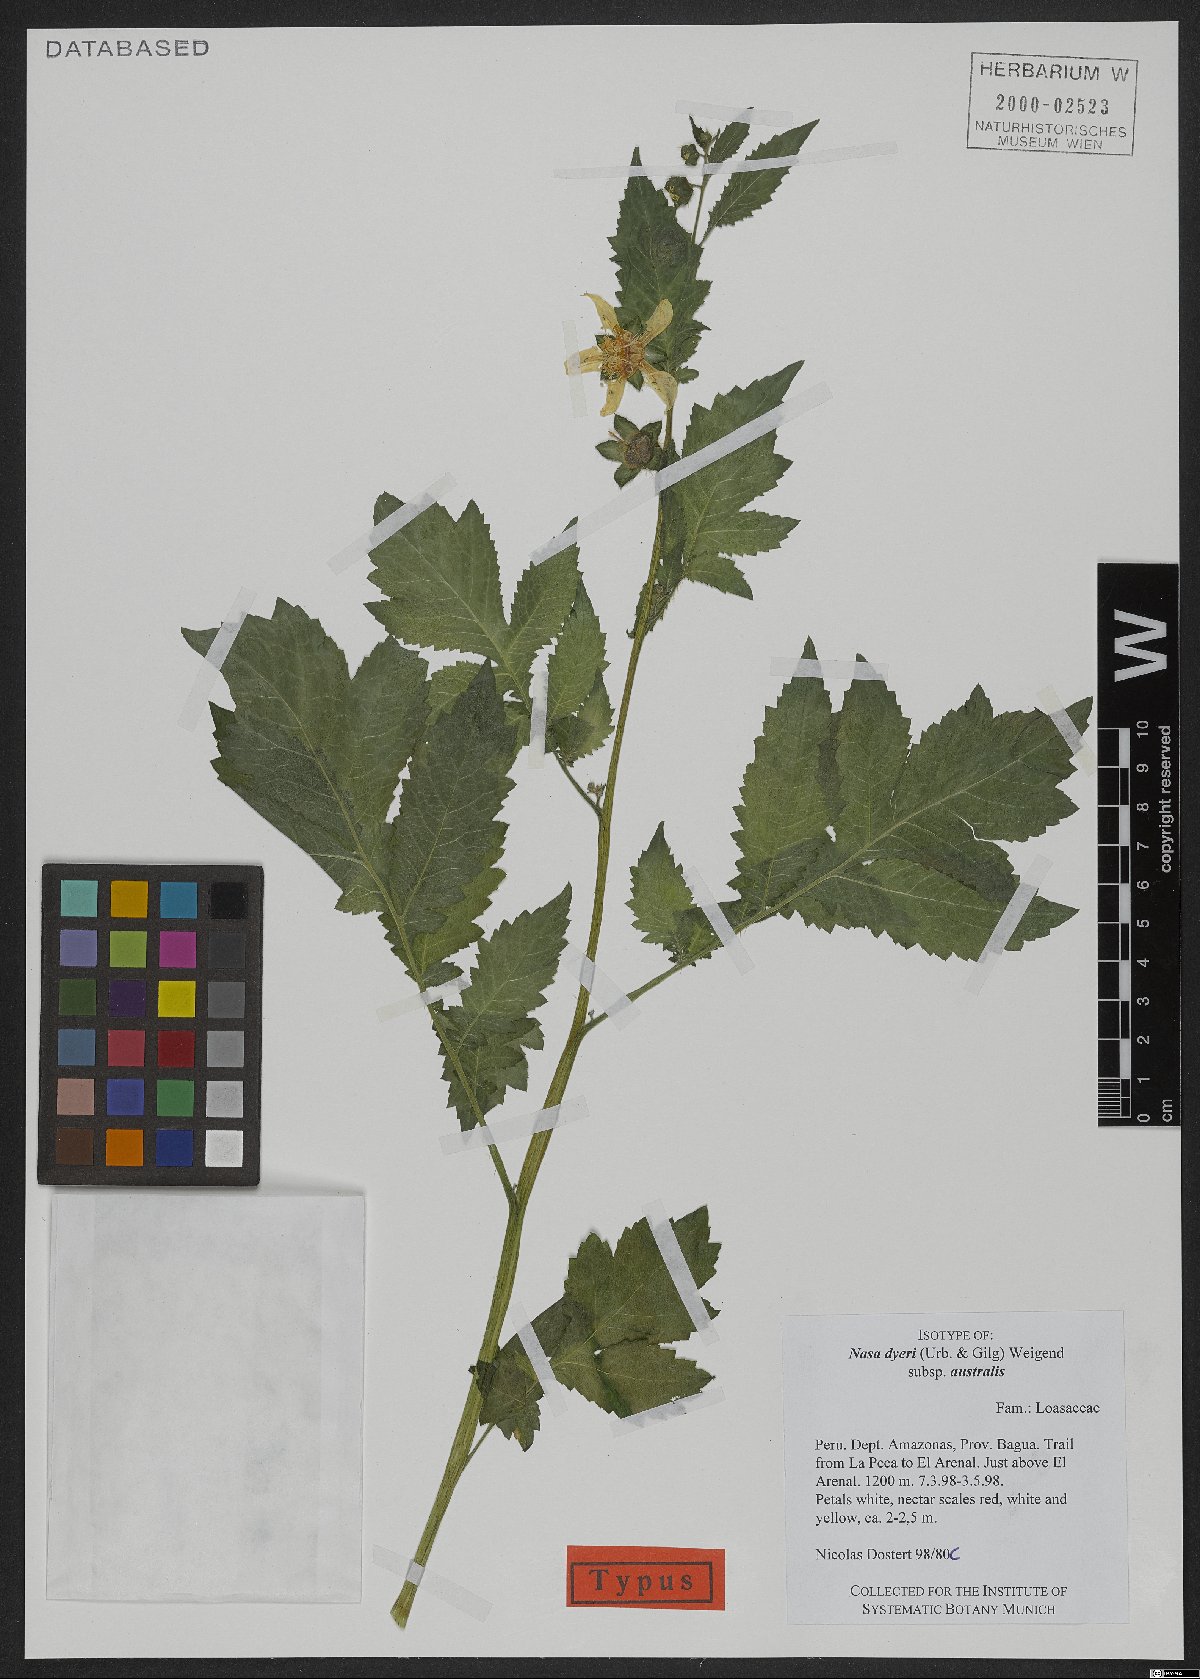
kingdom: Plantae
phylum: Tracheophyta
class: Magnoliopsida
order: Cornales
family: Loasaceae
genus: Nasa
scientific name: Nasa dyeri
